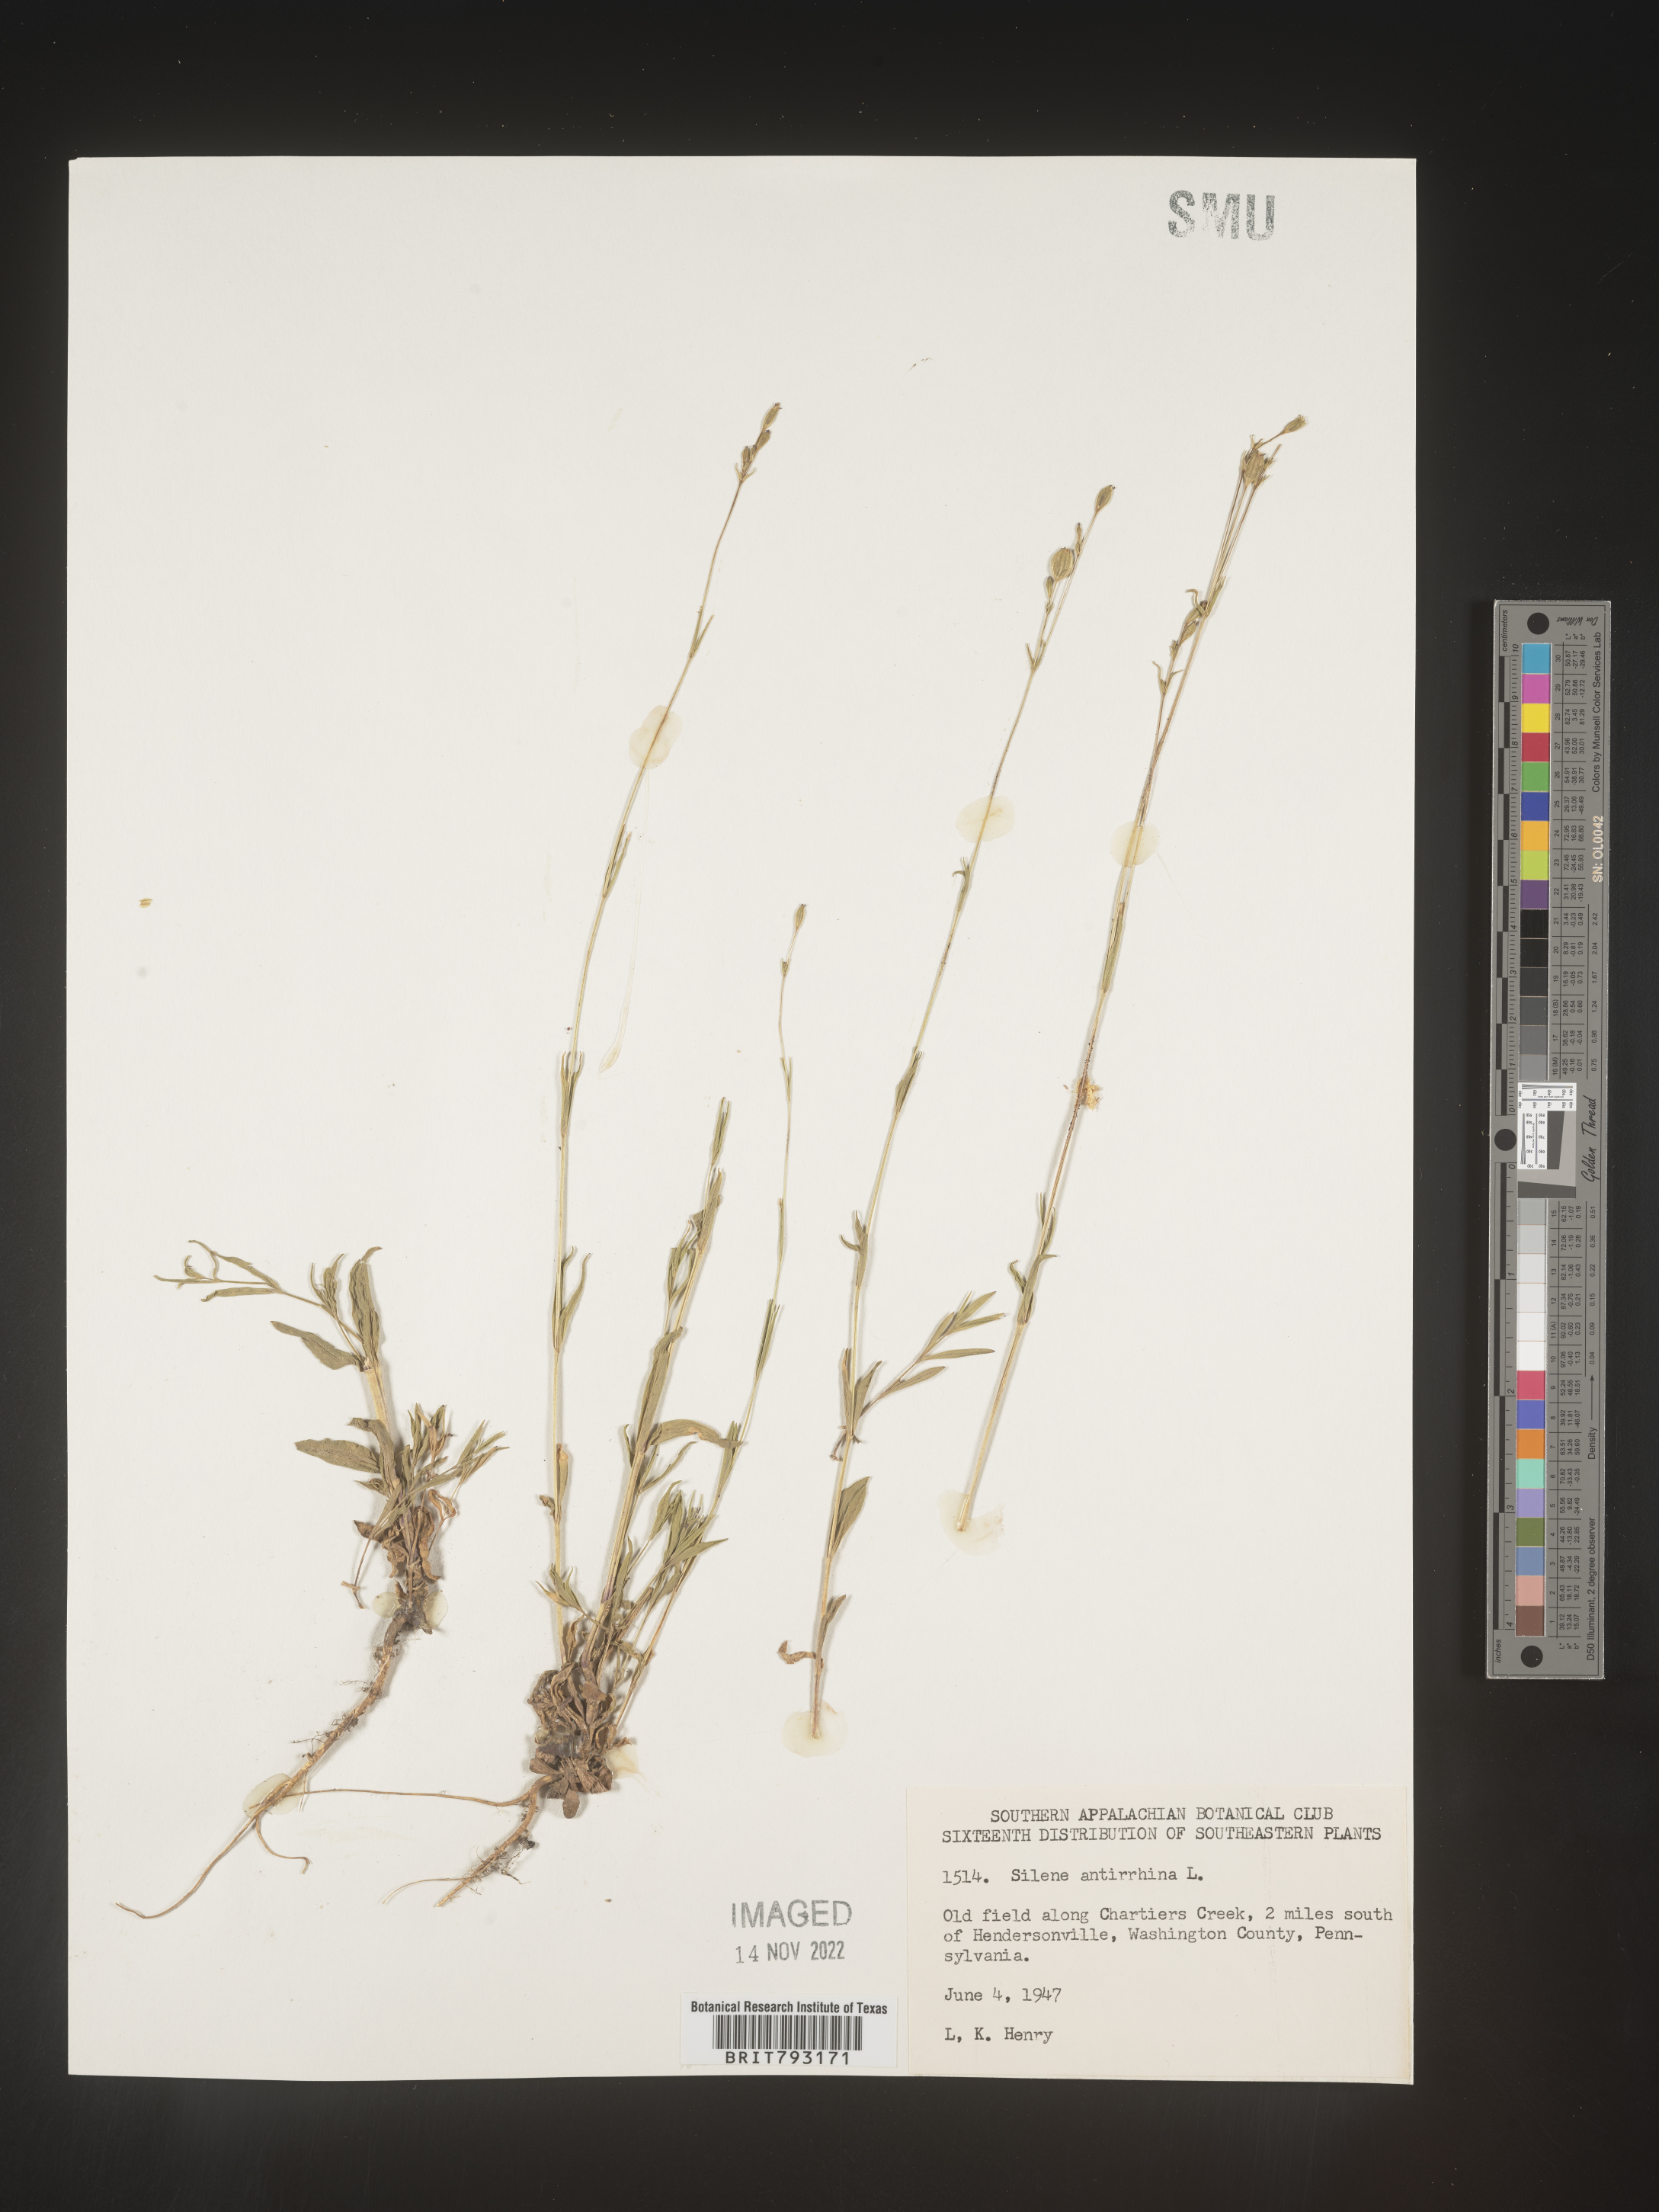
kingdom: Plantae
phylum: Tracheophyta
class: Magnoliopsida
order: Caryophyllales
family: Caryophyllaceae
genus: Silene
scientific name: Silene antirrhina
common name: Sleepy catchfly
